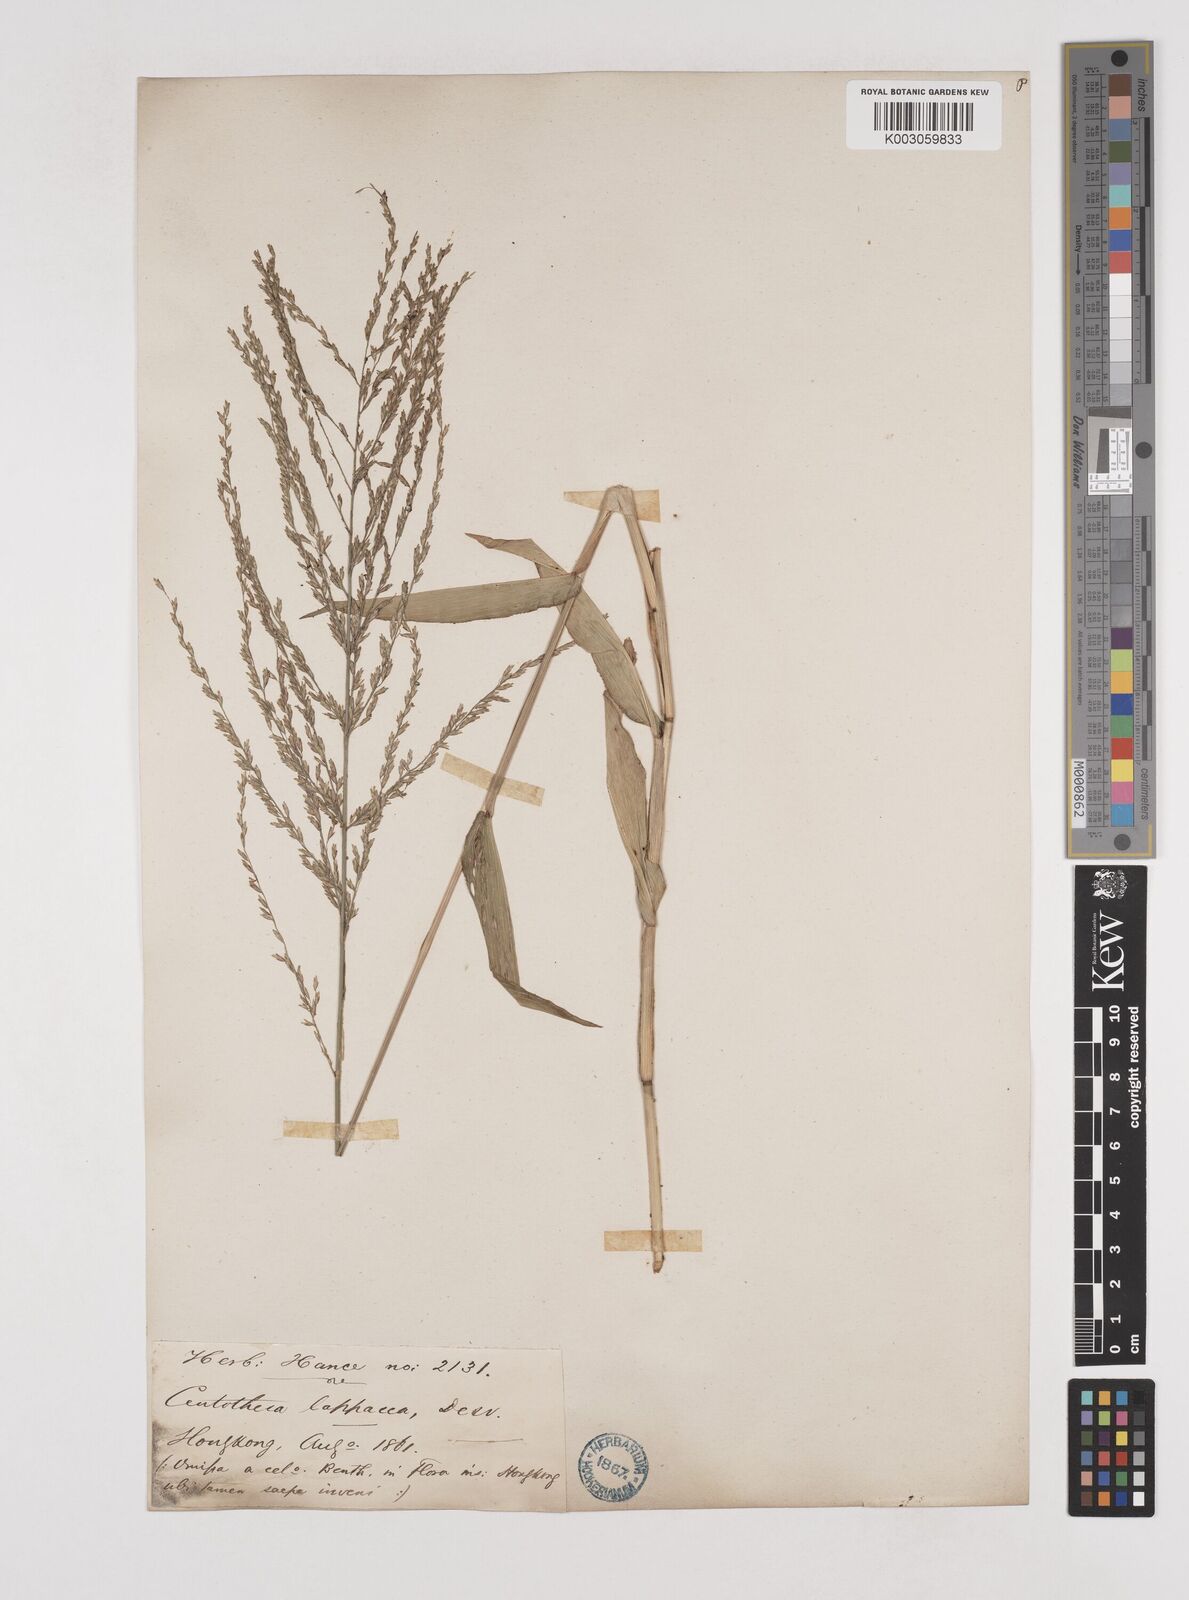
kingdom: Plantae
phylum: Tracheophyta
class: Liliopsida
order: Poales
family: Poaceae
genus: Centotheca
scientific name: Centotheca lappacea
